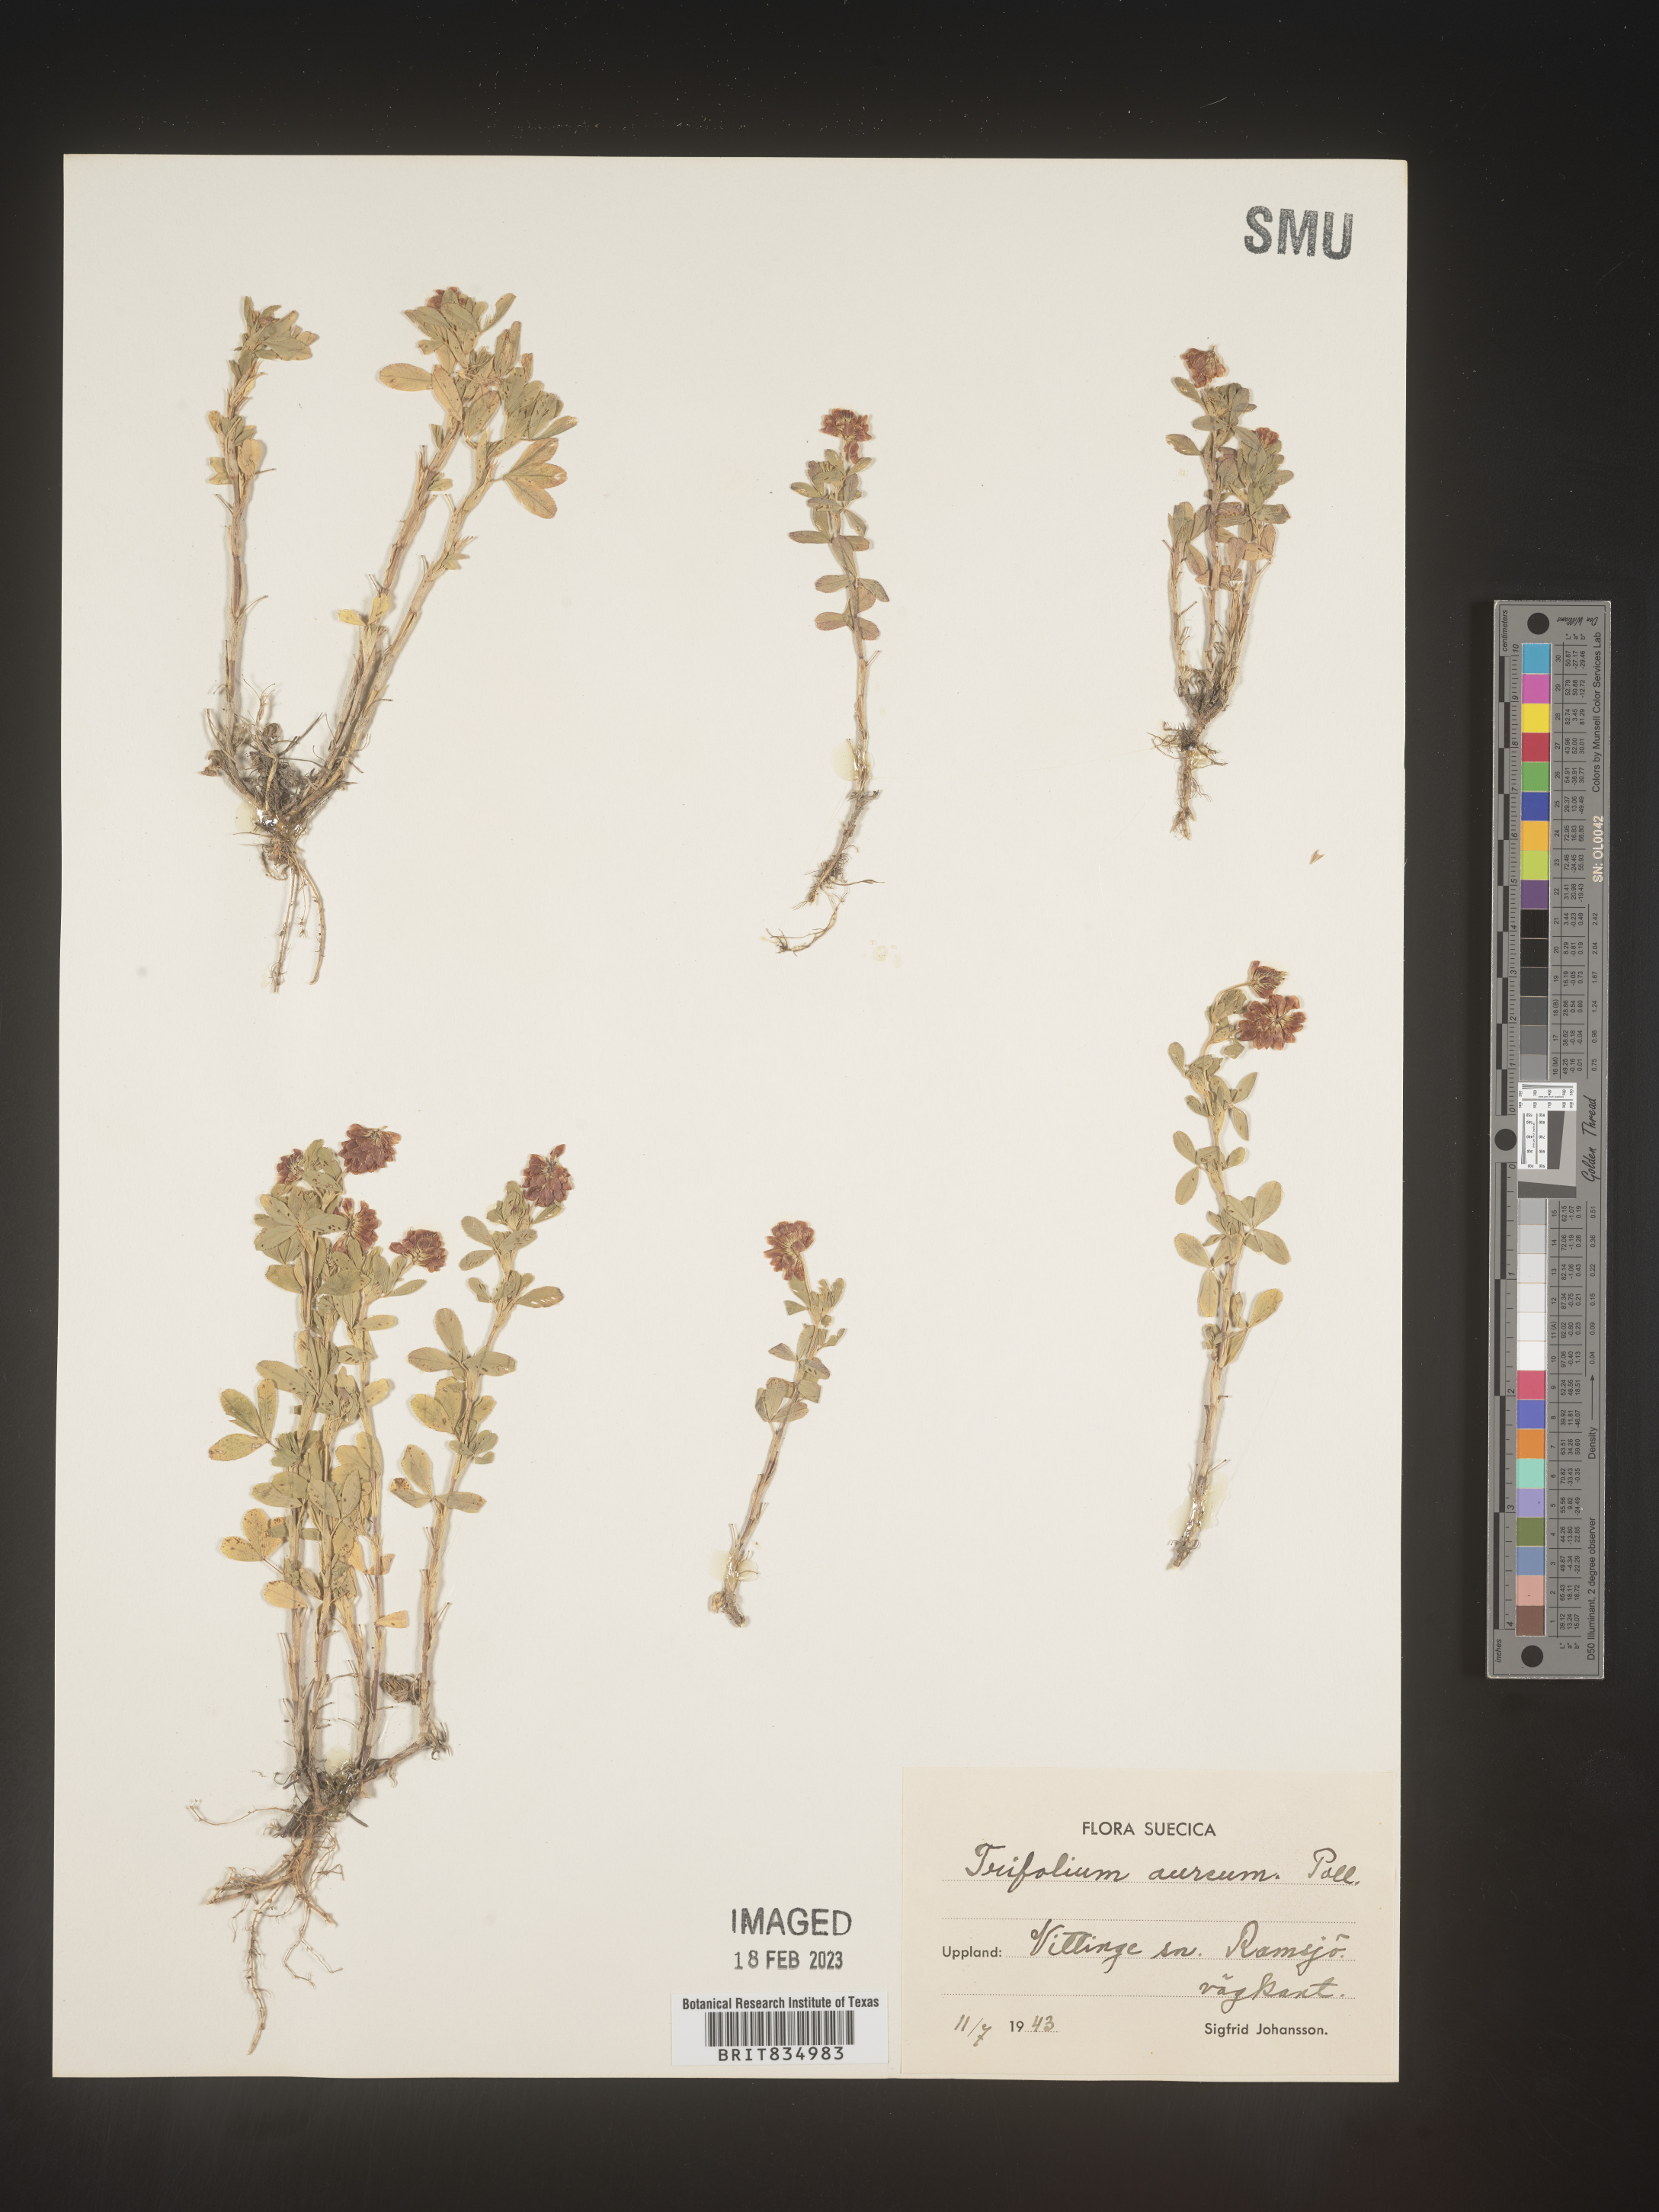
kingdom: Plantae
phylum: Tracheophyta
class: Magnoliopsida
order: Fabales
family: Fabaceae
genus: Trifolium
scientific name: Trifolium
